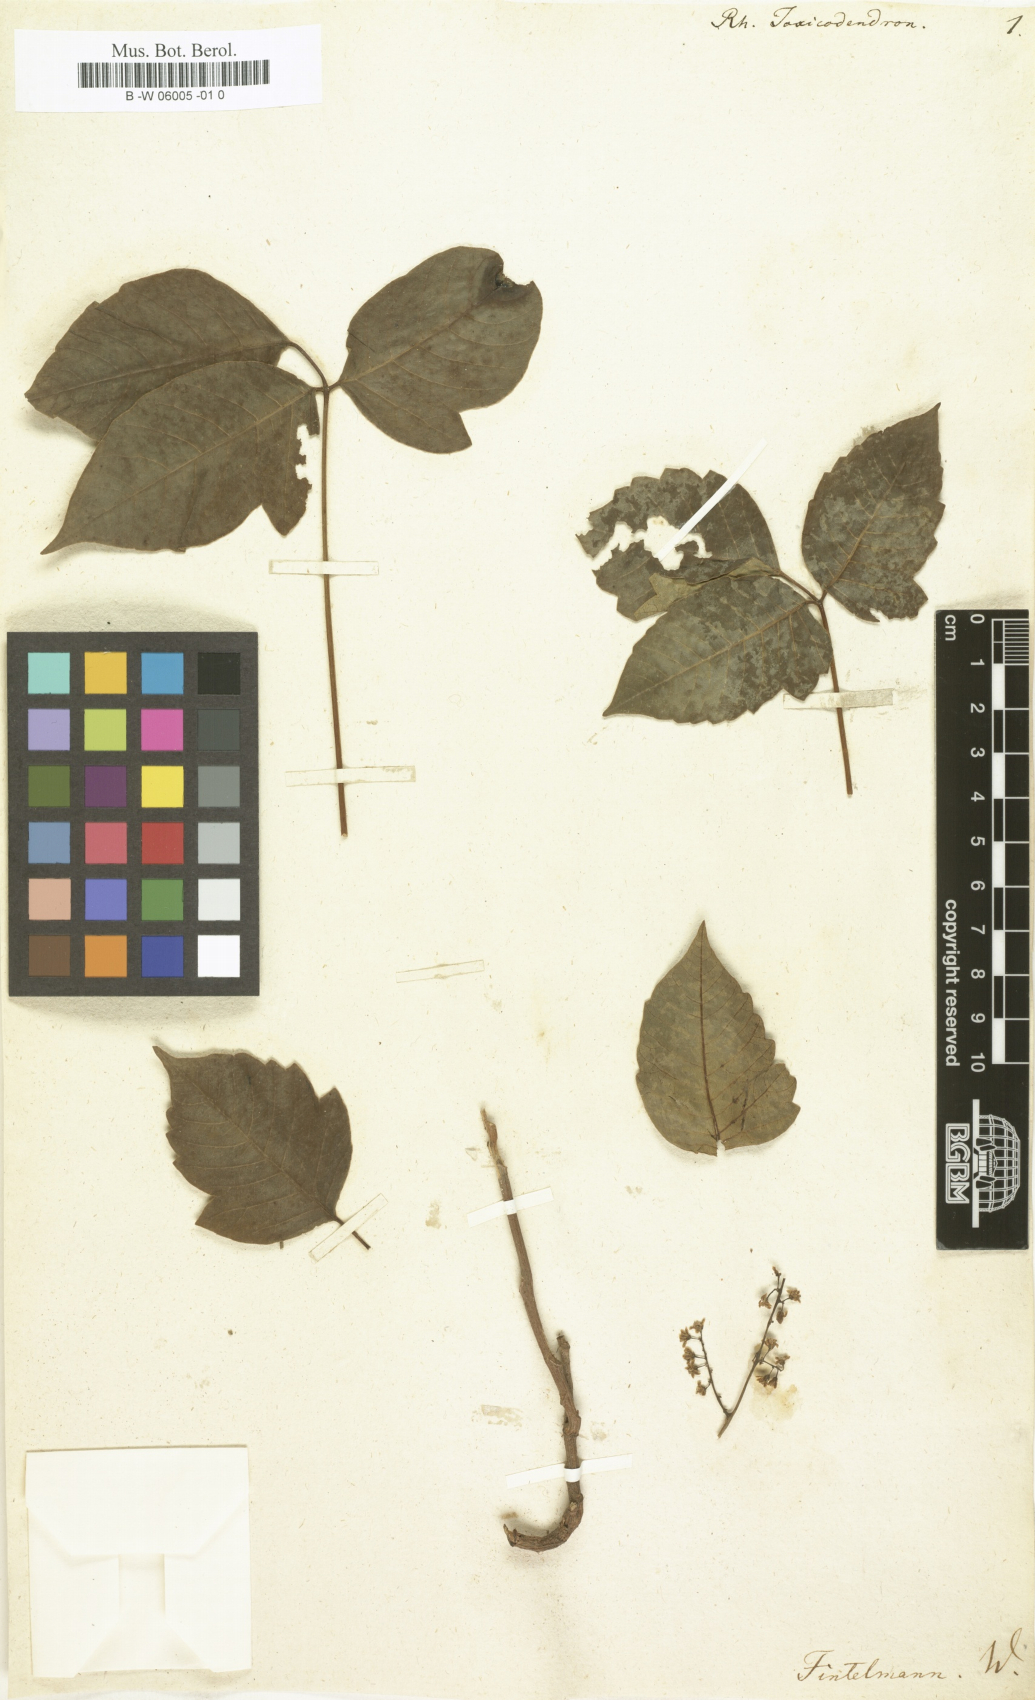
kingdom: Plantae
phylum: Tracheophyta
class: Magnoliopsida
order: Sapindales
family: Anacardiaceae
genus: Toxicodendron
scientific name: Toxicodendron
